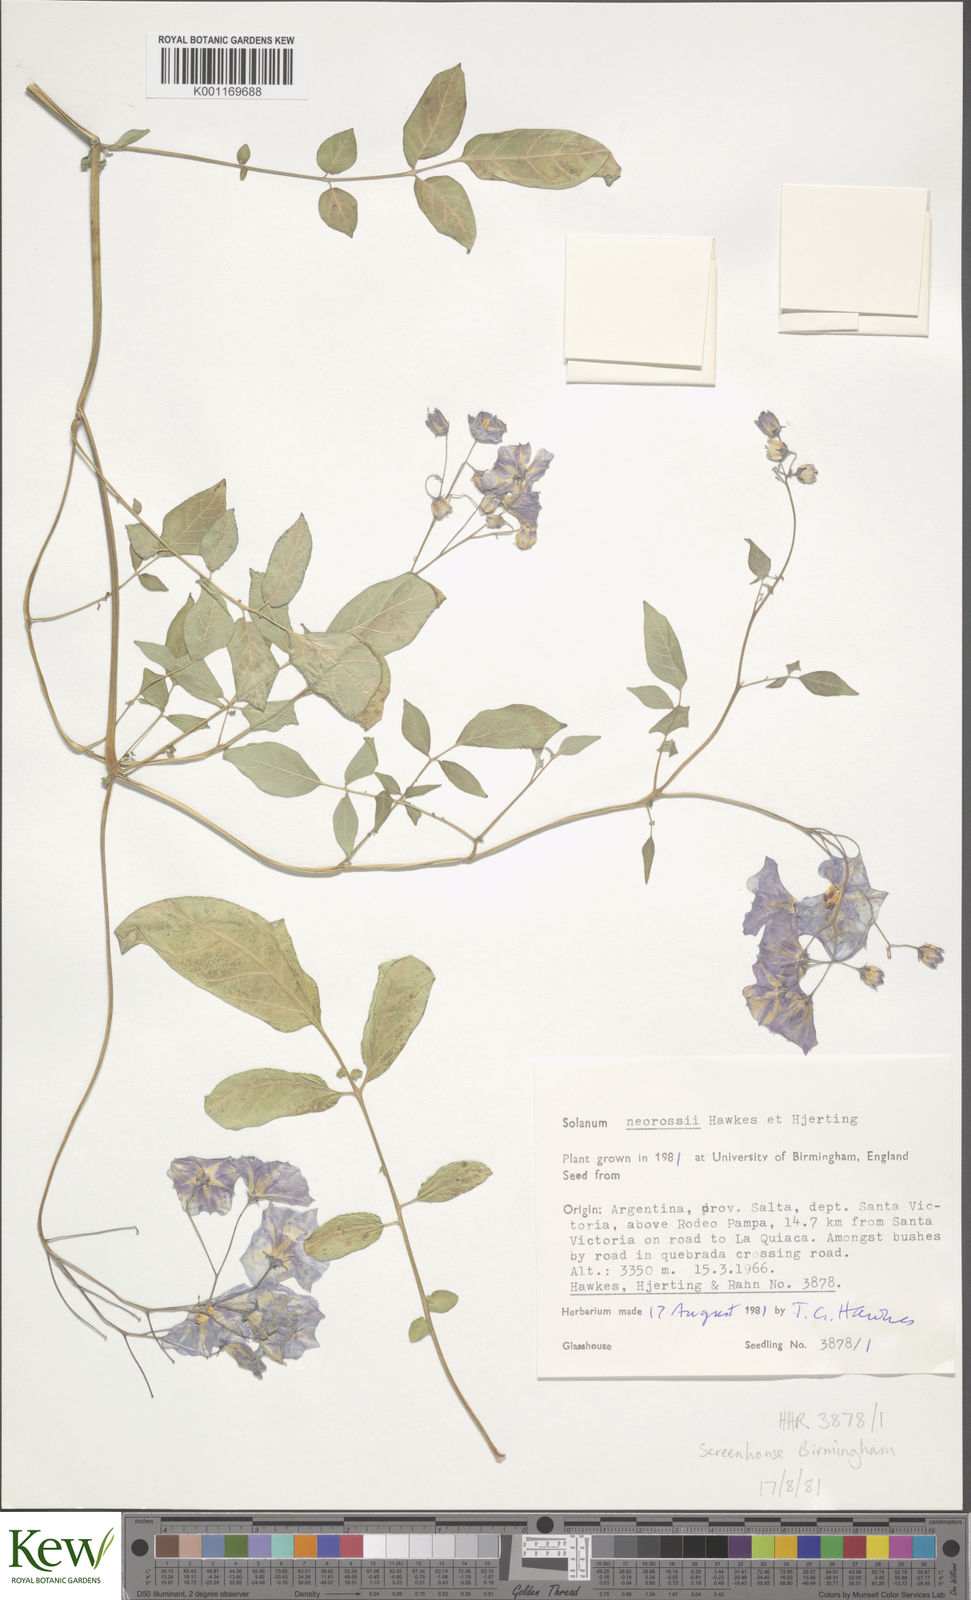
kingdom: Plantae
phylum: Tracheophyta
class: Magnoliopsida
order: Solanales
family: Solanaceae
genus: Solanum
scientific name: Solanum neorossii
